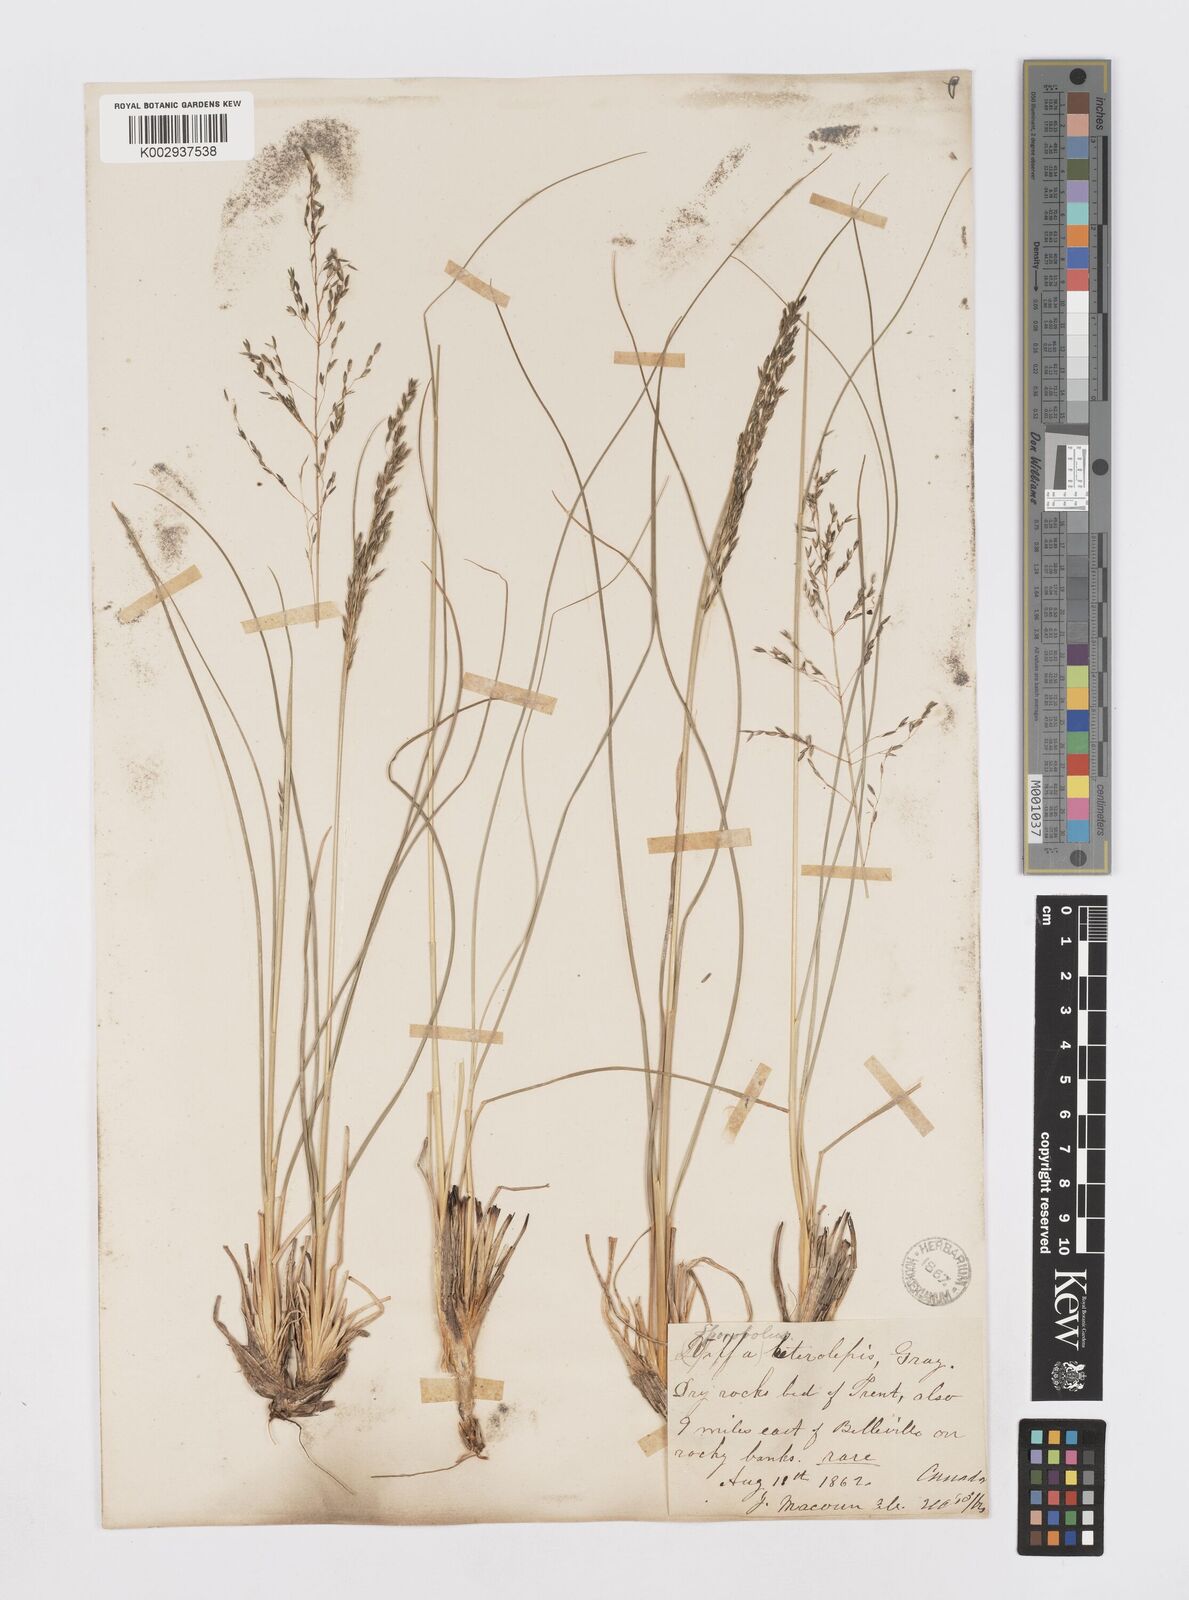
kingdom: Plantae
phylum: Tracheophyta
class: Liliopsida
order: Poales
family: Poaceae
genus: Sporobolus
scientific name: Sporobolus heterolepis
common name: Prairie dropseed
